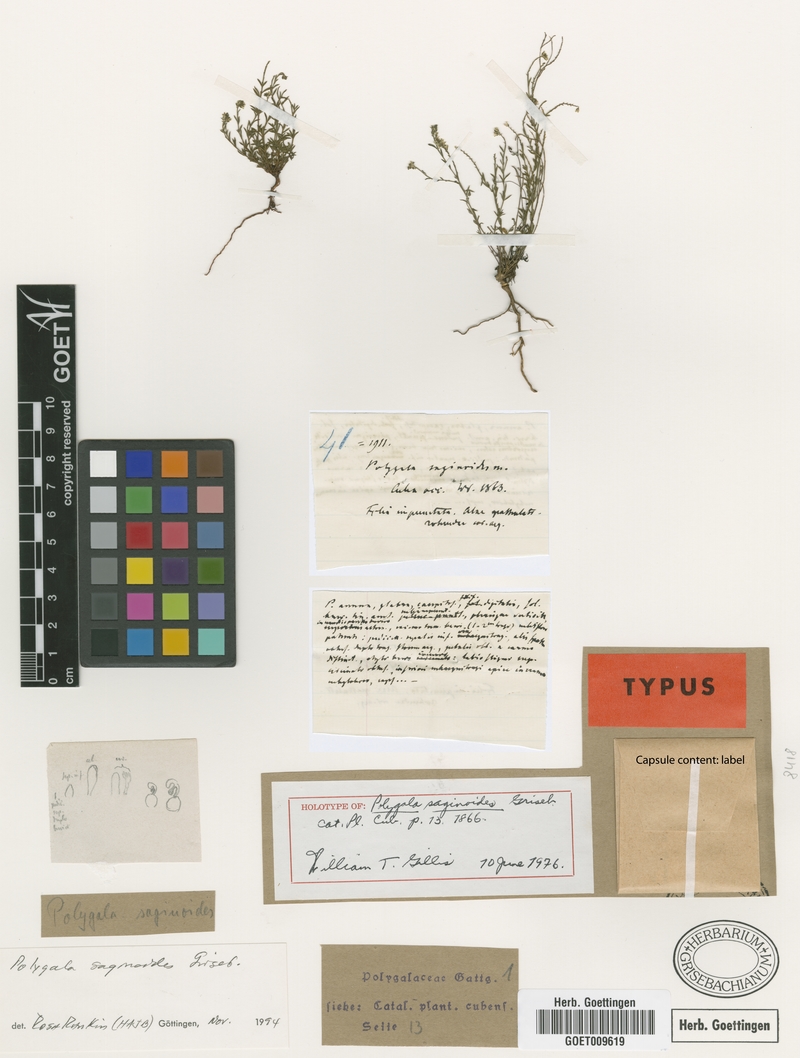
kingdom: Plantae
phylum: Tracheophyta
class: Magnoliopsida
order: Fabales
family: Polygalaceae
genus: Polygala
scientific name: Polygala saginoides
